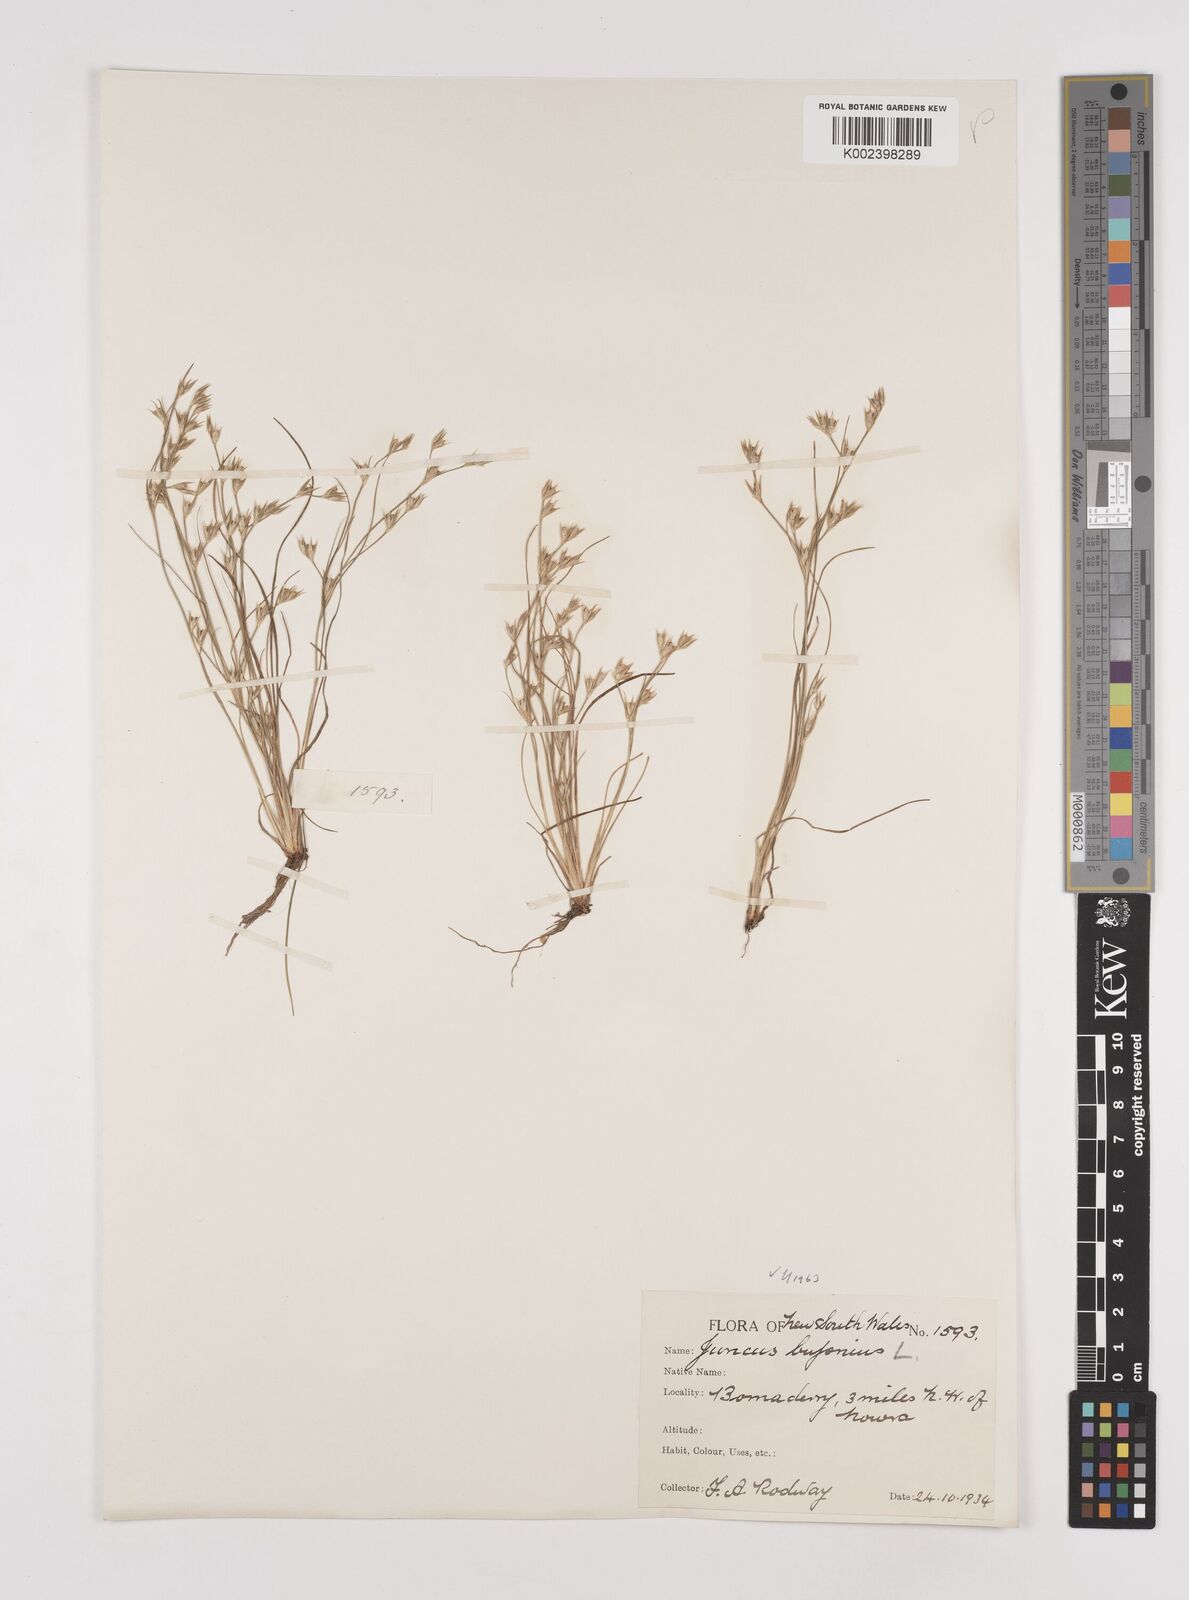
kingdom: Plantae
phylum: Tracheophyta
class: Liliopsida
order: Poales
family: Juncaceae
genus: Juncus
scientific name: Juncus ranarius
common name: Frog rush
